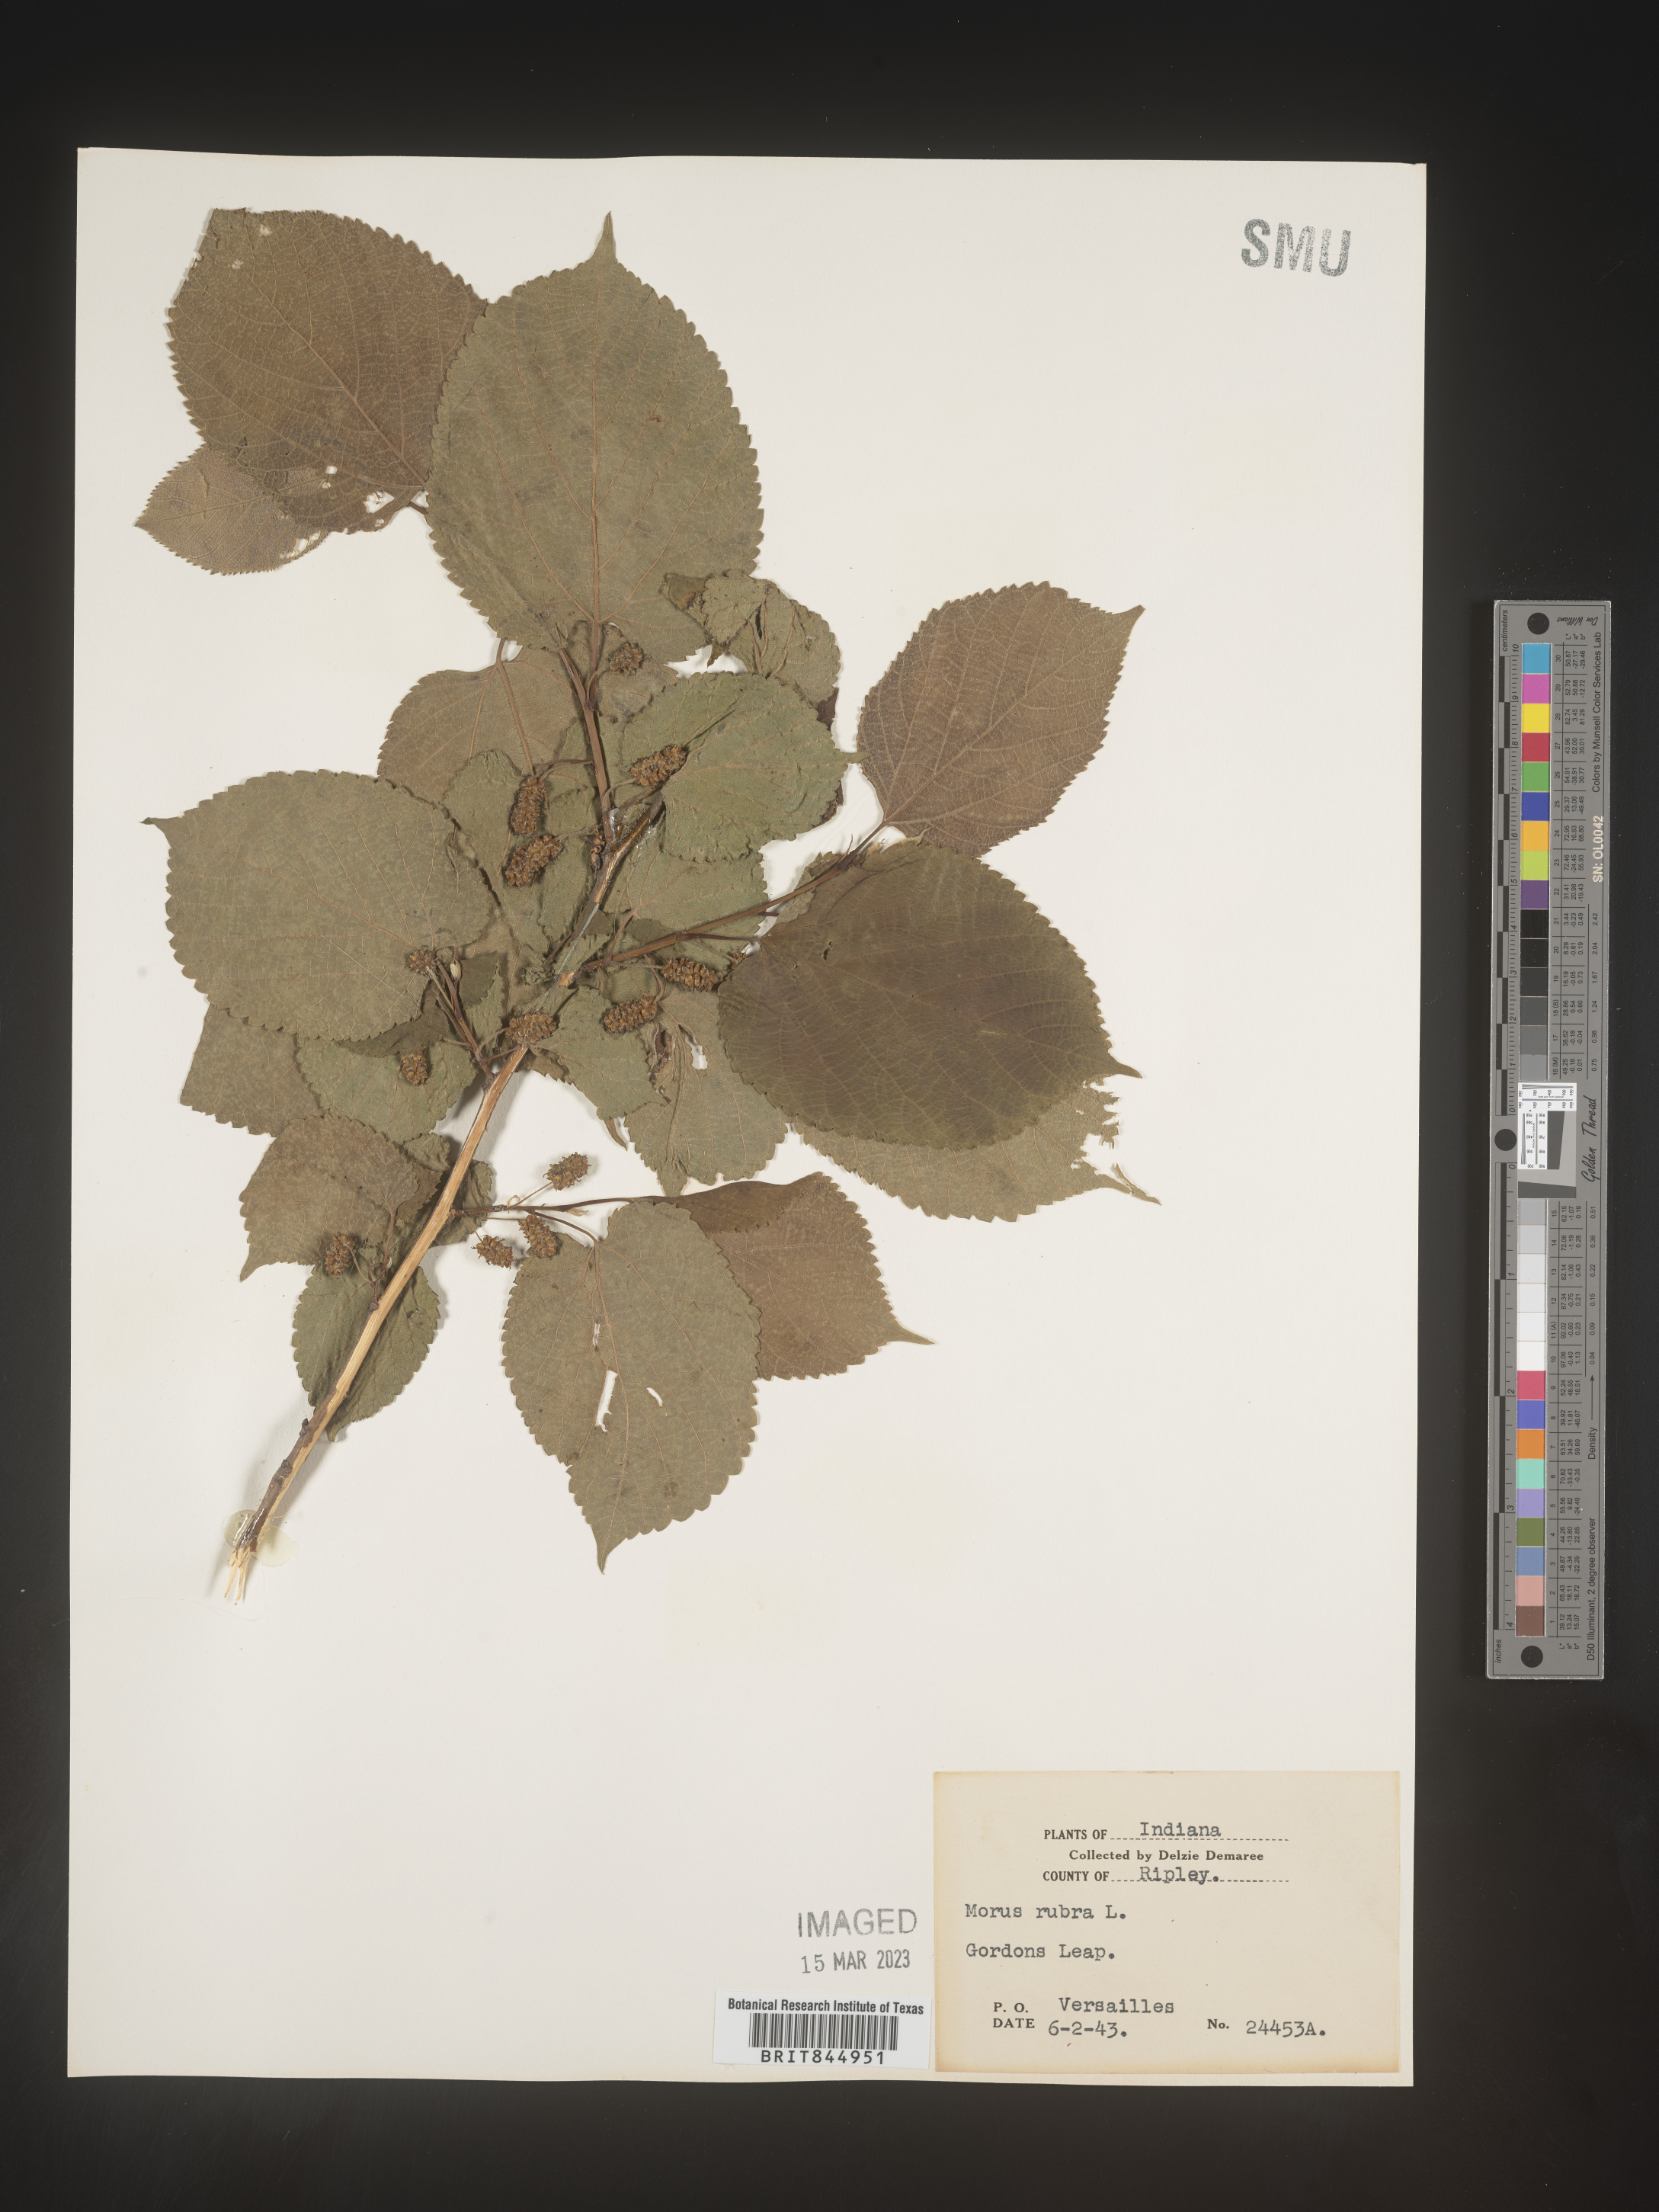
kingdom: Plantae
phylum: Tracheophyta
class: Magnoliopsida
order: Rosales
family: Moraceae
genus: Morus
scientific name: Morus rubra
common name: Red mulberry
